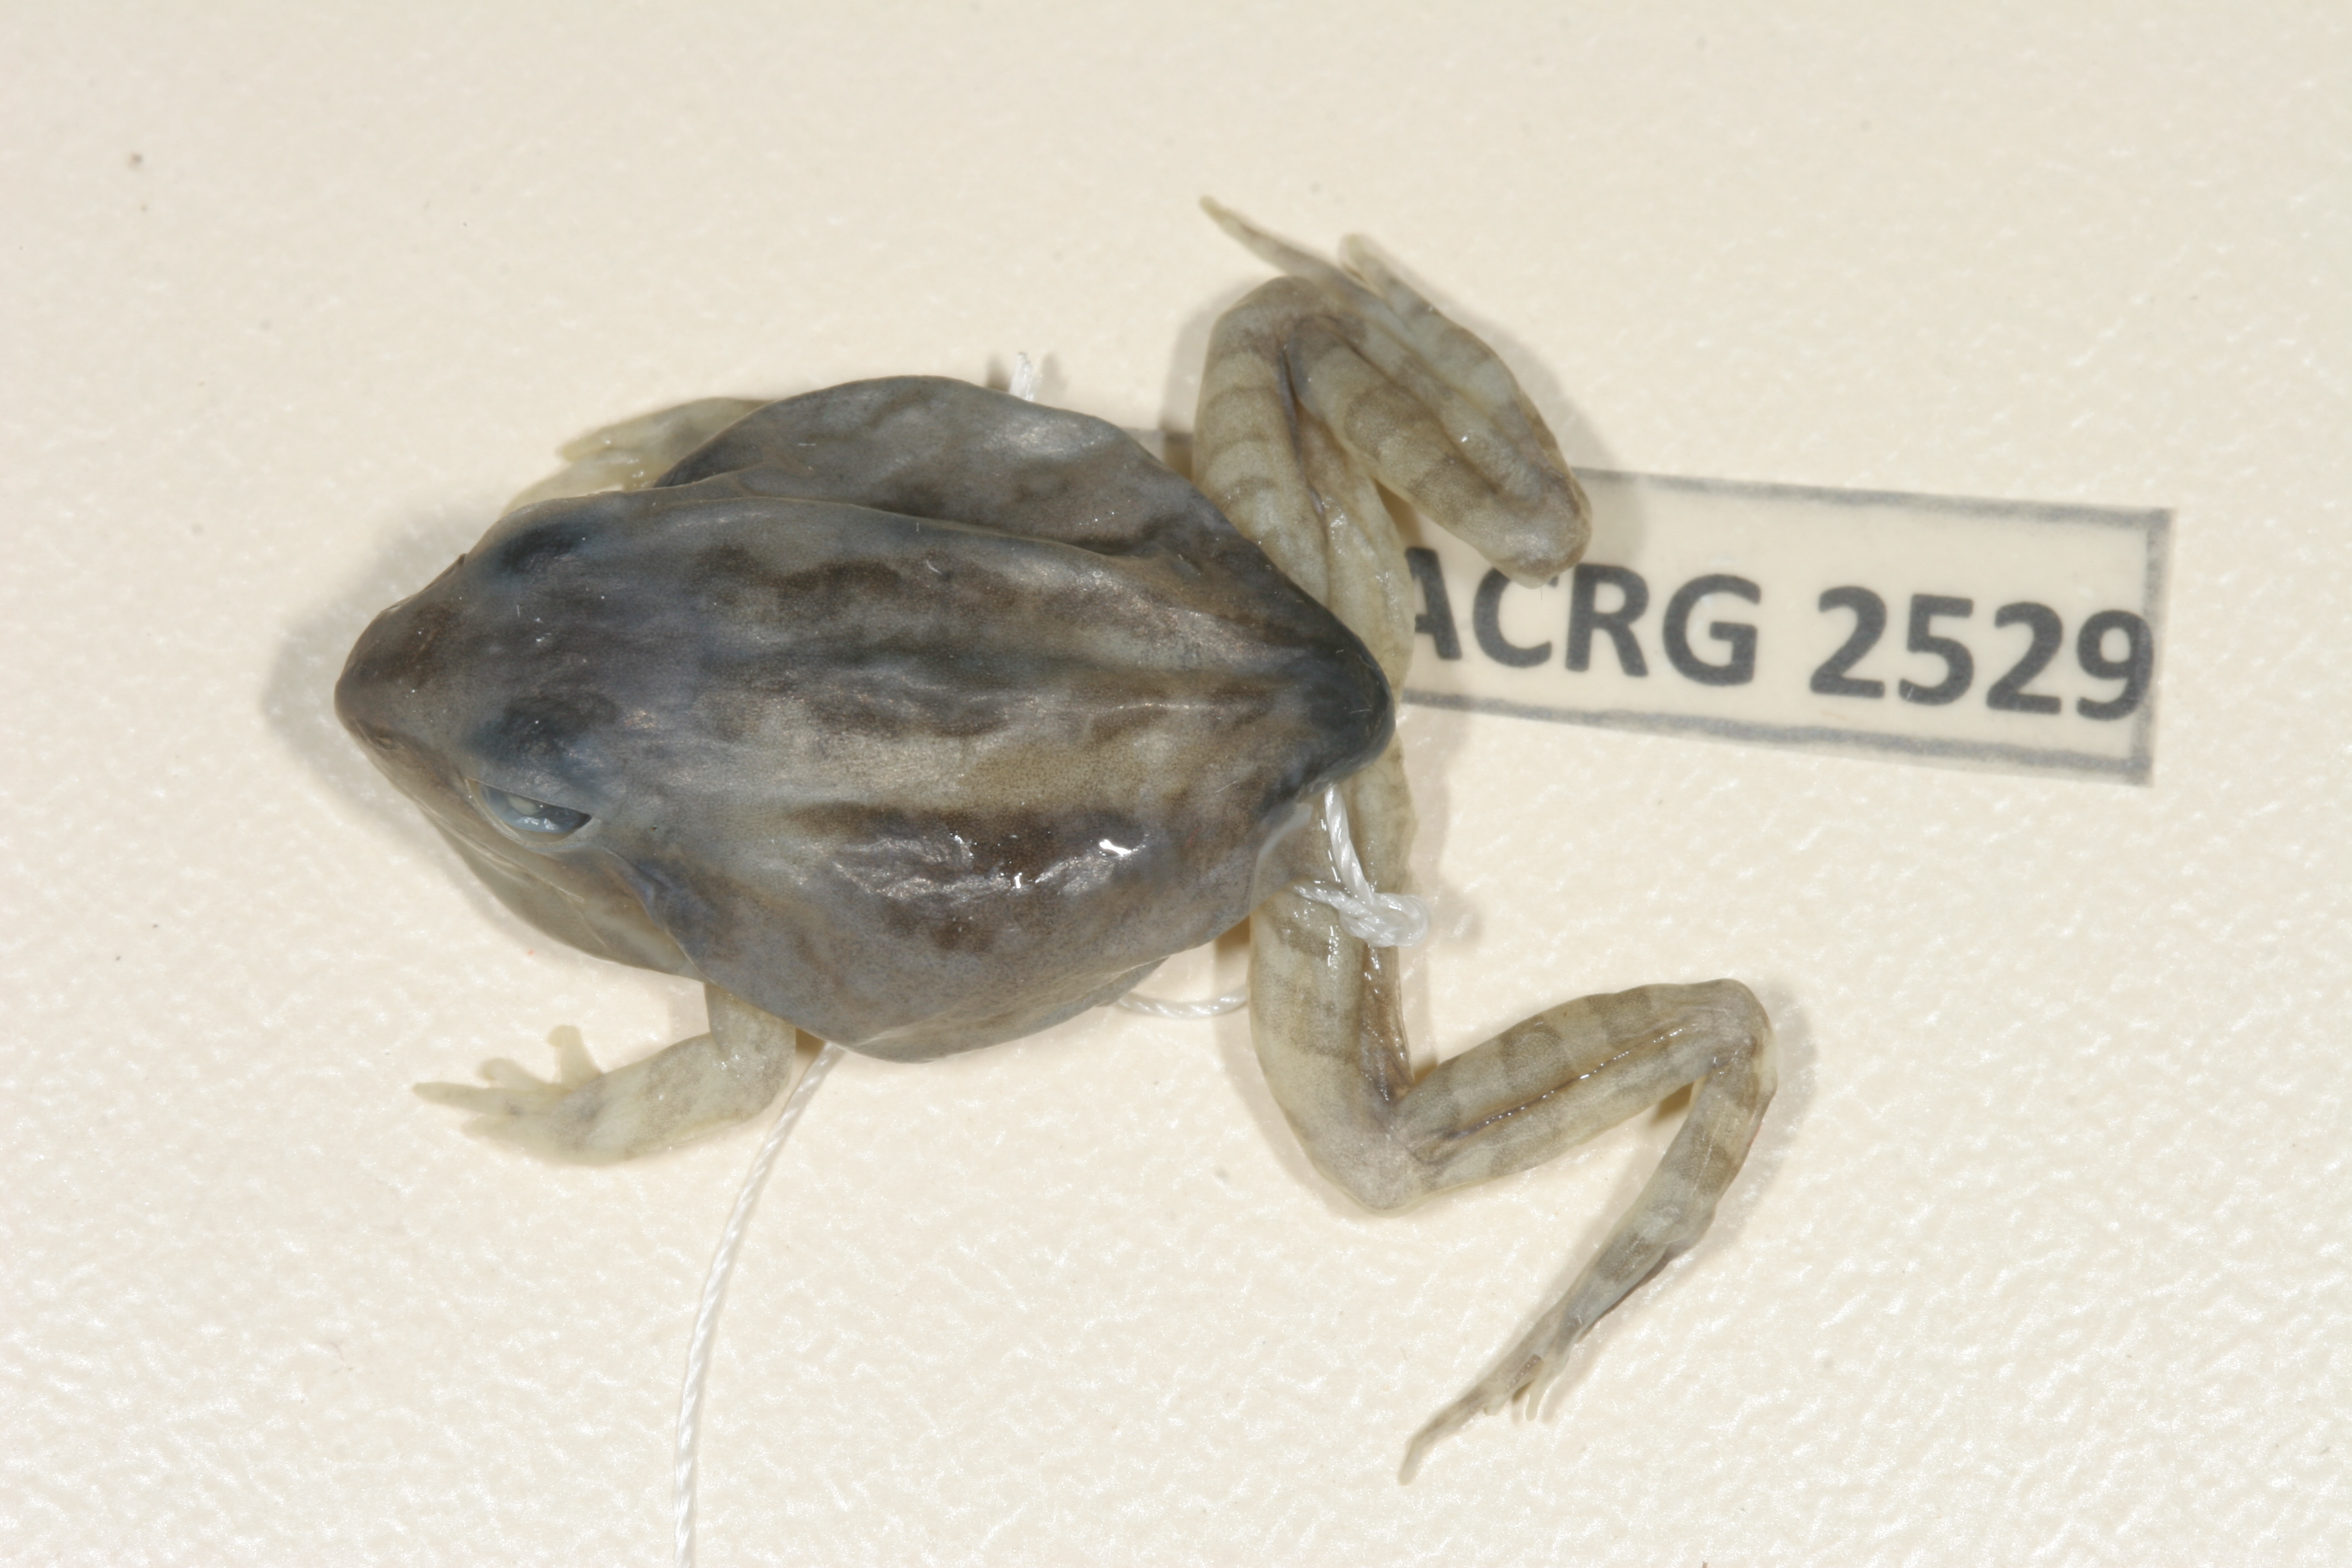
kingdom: Animalia
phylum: Chordata
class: Amphibia
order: Anura
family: Ptychadenidae
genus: Hildebrandtia
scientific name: Hildebrandtia ornata
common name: Ornate frog
